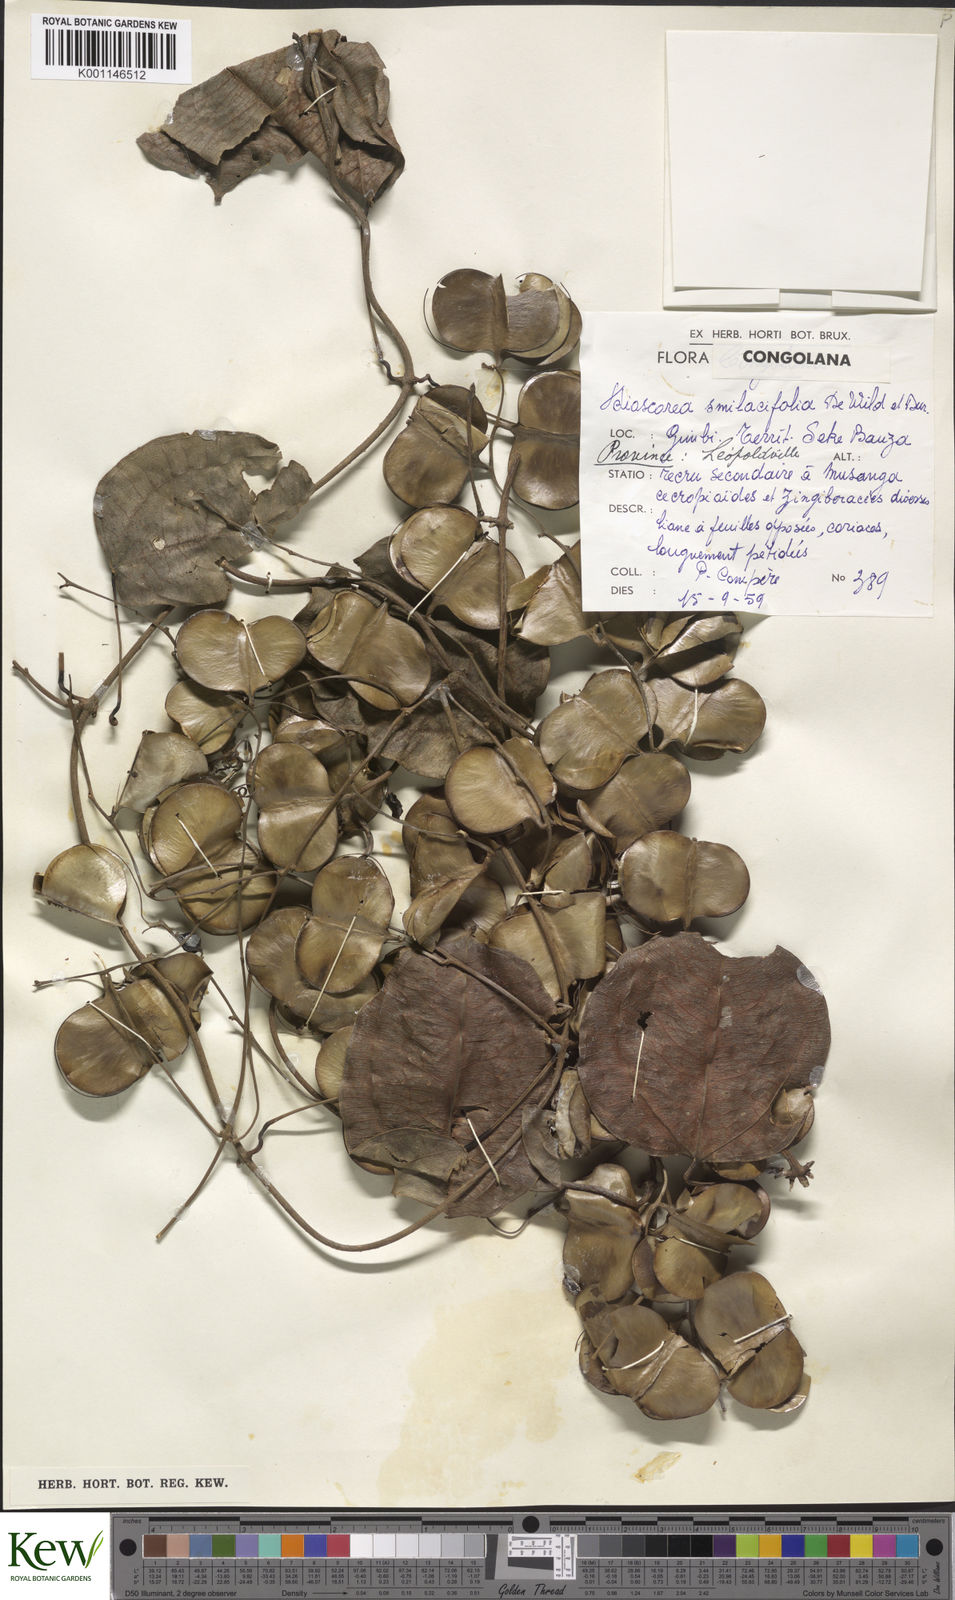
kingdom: Plantae
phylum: Tracheophyta
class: Liliopsida
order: Dioscoreales
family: Dioscoreaceae
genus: Dioscorea
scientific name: Dioscorea smilacifolia
